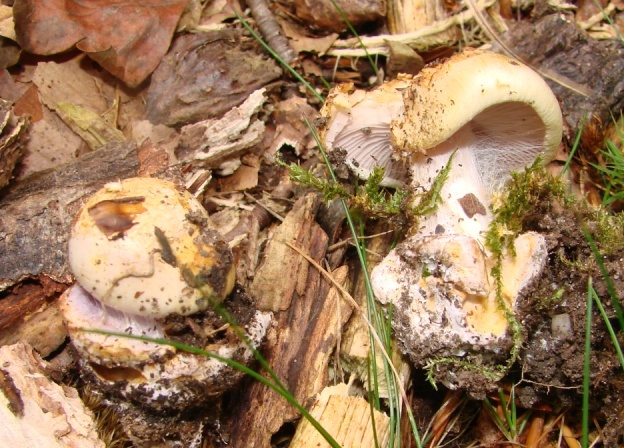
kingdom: Fungi
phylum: Basidiomycota
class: Agaricomycetes
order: Agaricales
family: Cortinariaceae
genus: Calonarius
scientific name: Calonarius lilacinovelatus
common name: violetknoldet slørhat
